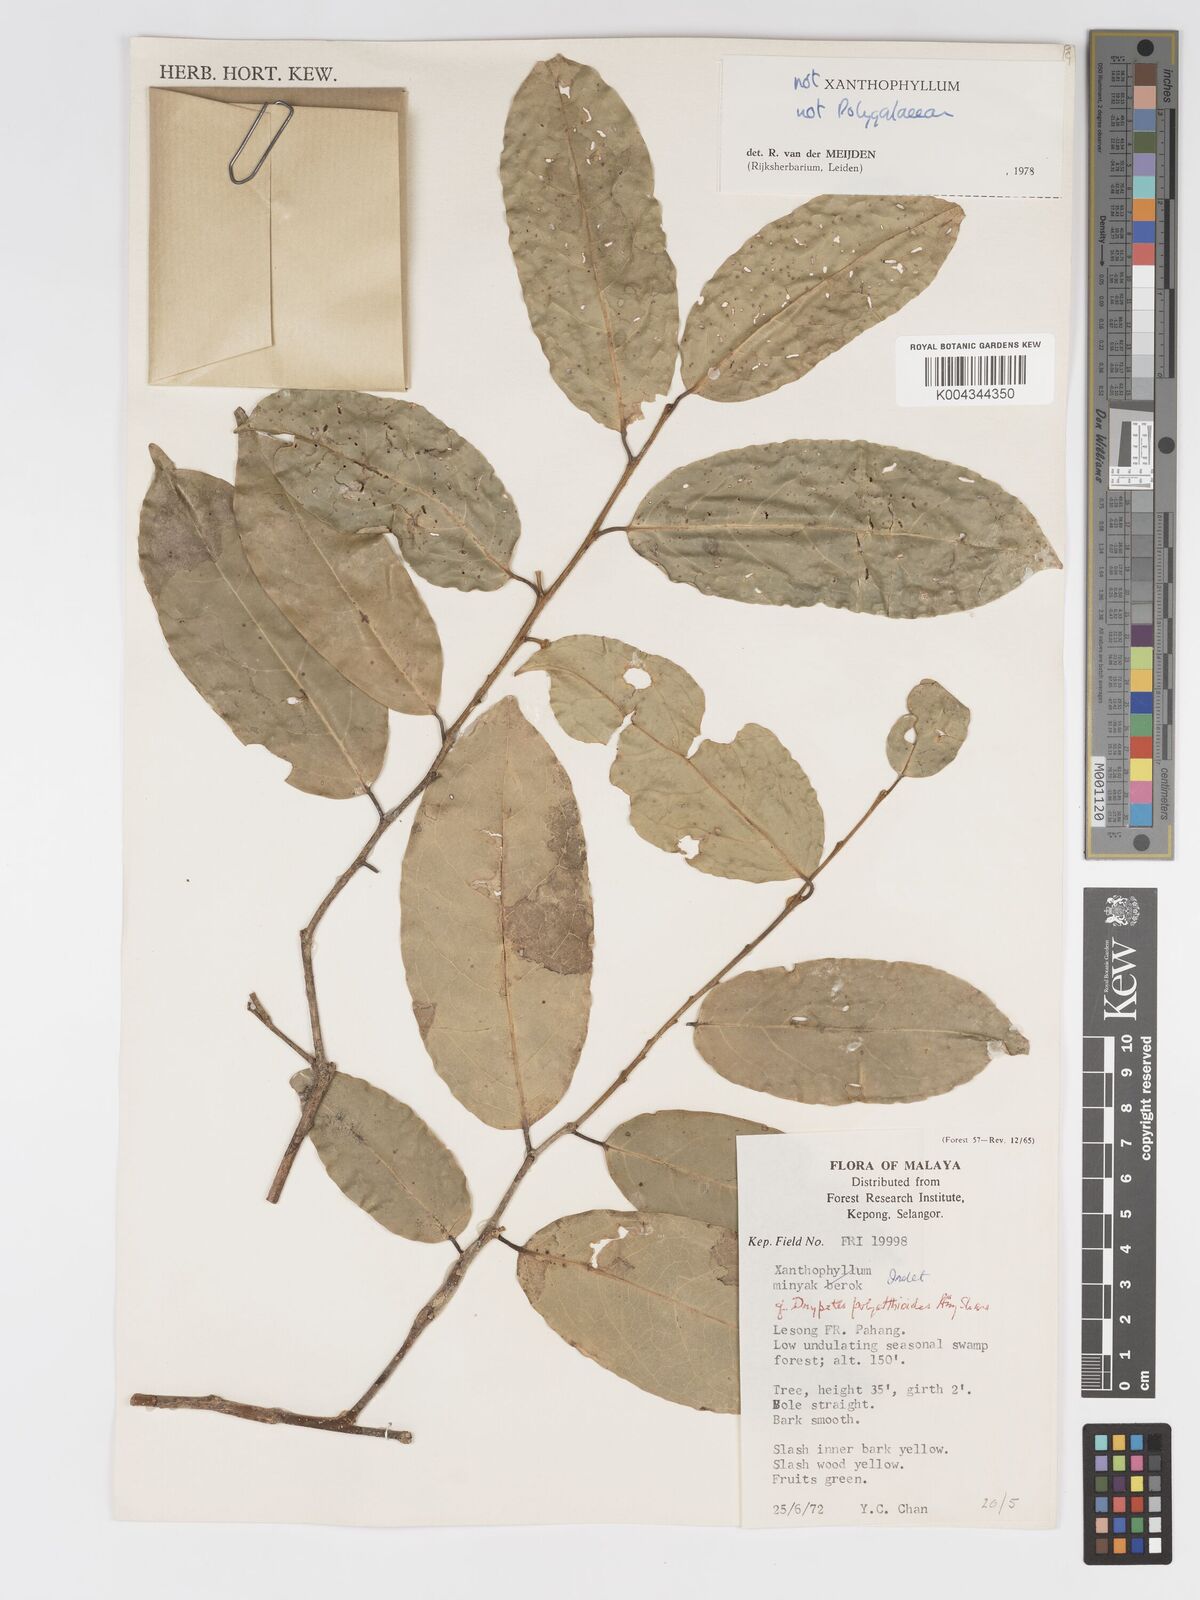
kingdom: Plantae
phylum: Tracheophyta
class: Magnoliopsida
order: Malpighiales
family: Putranjivaceae
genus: Drypetes
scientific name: Drypetes polyalthioides
